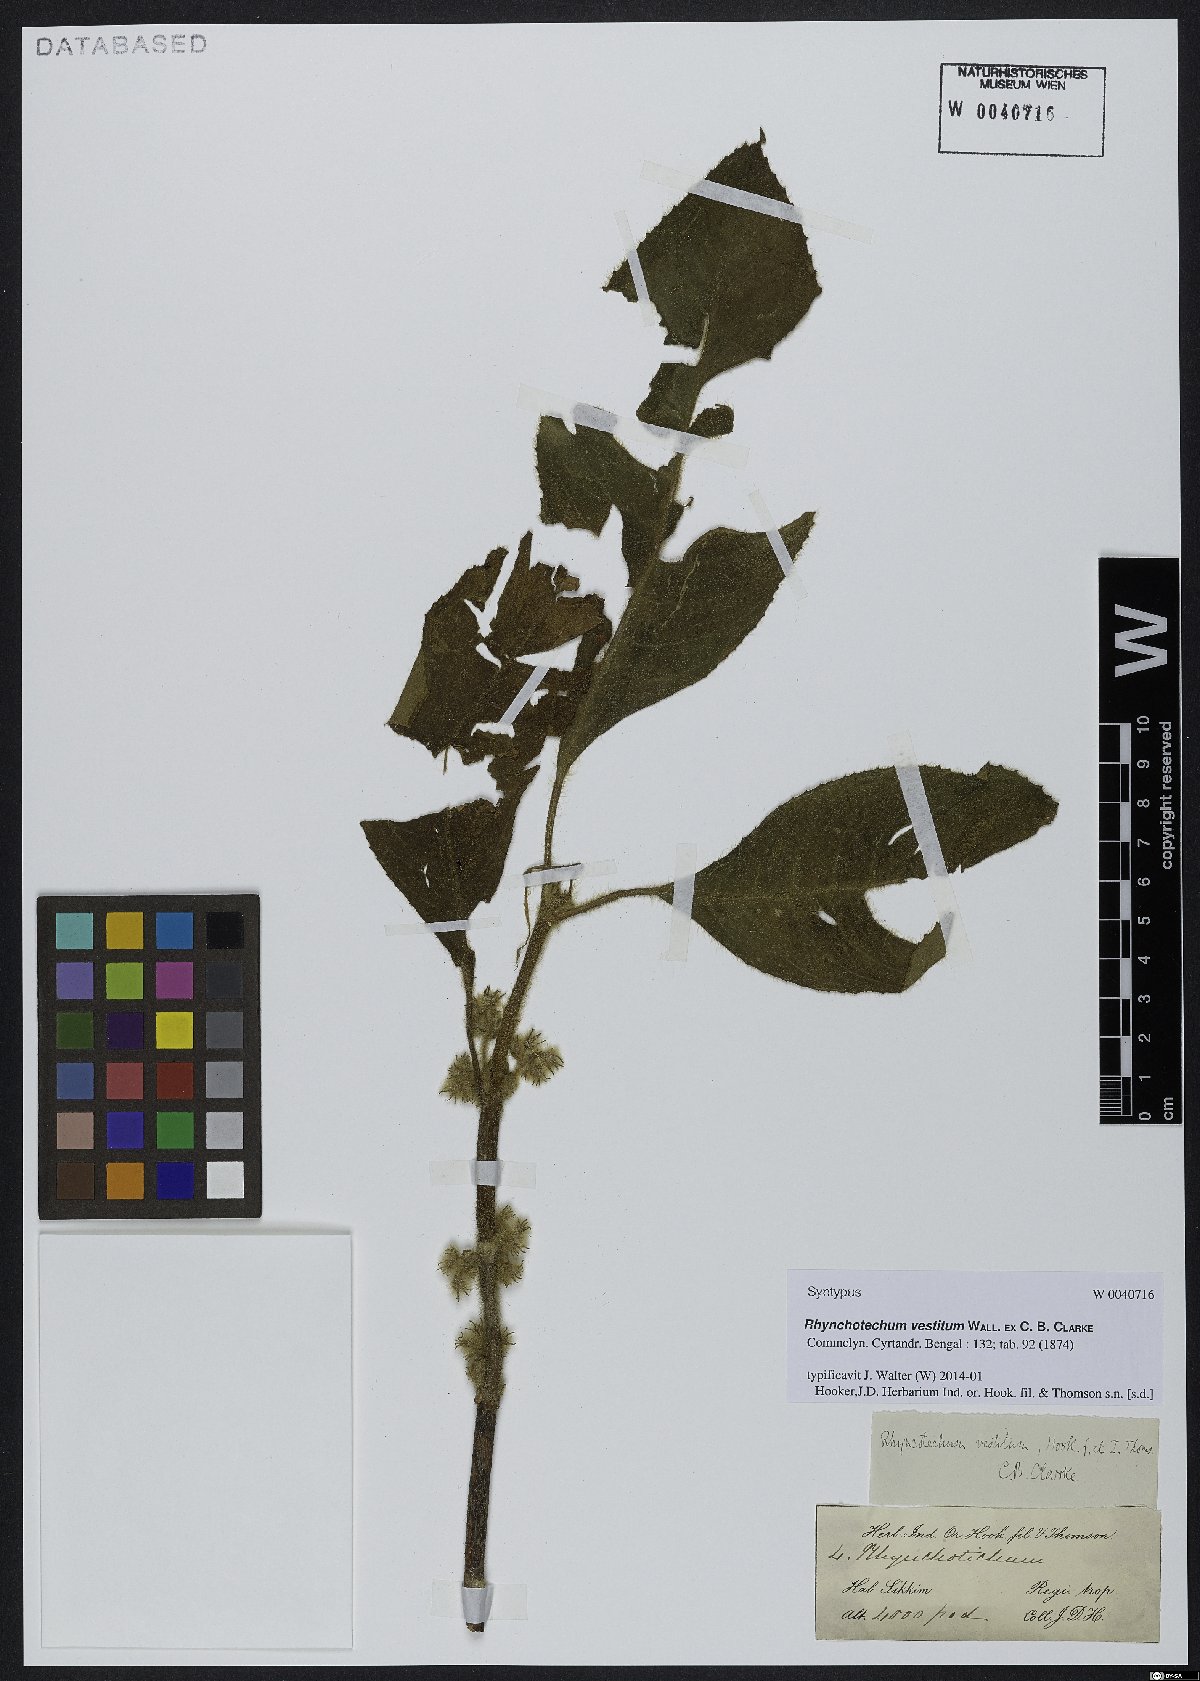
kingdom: Plantae
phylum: Tracheophyta
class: Magnoliopsida
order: Lamiales
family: Gesneriaceae
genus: Rhynchotechum
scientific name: Rhynchotechum vestitum
